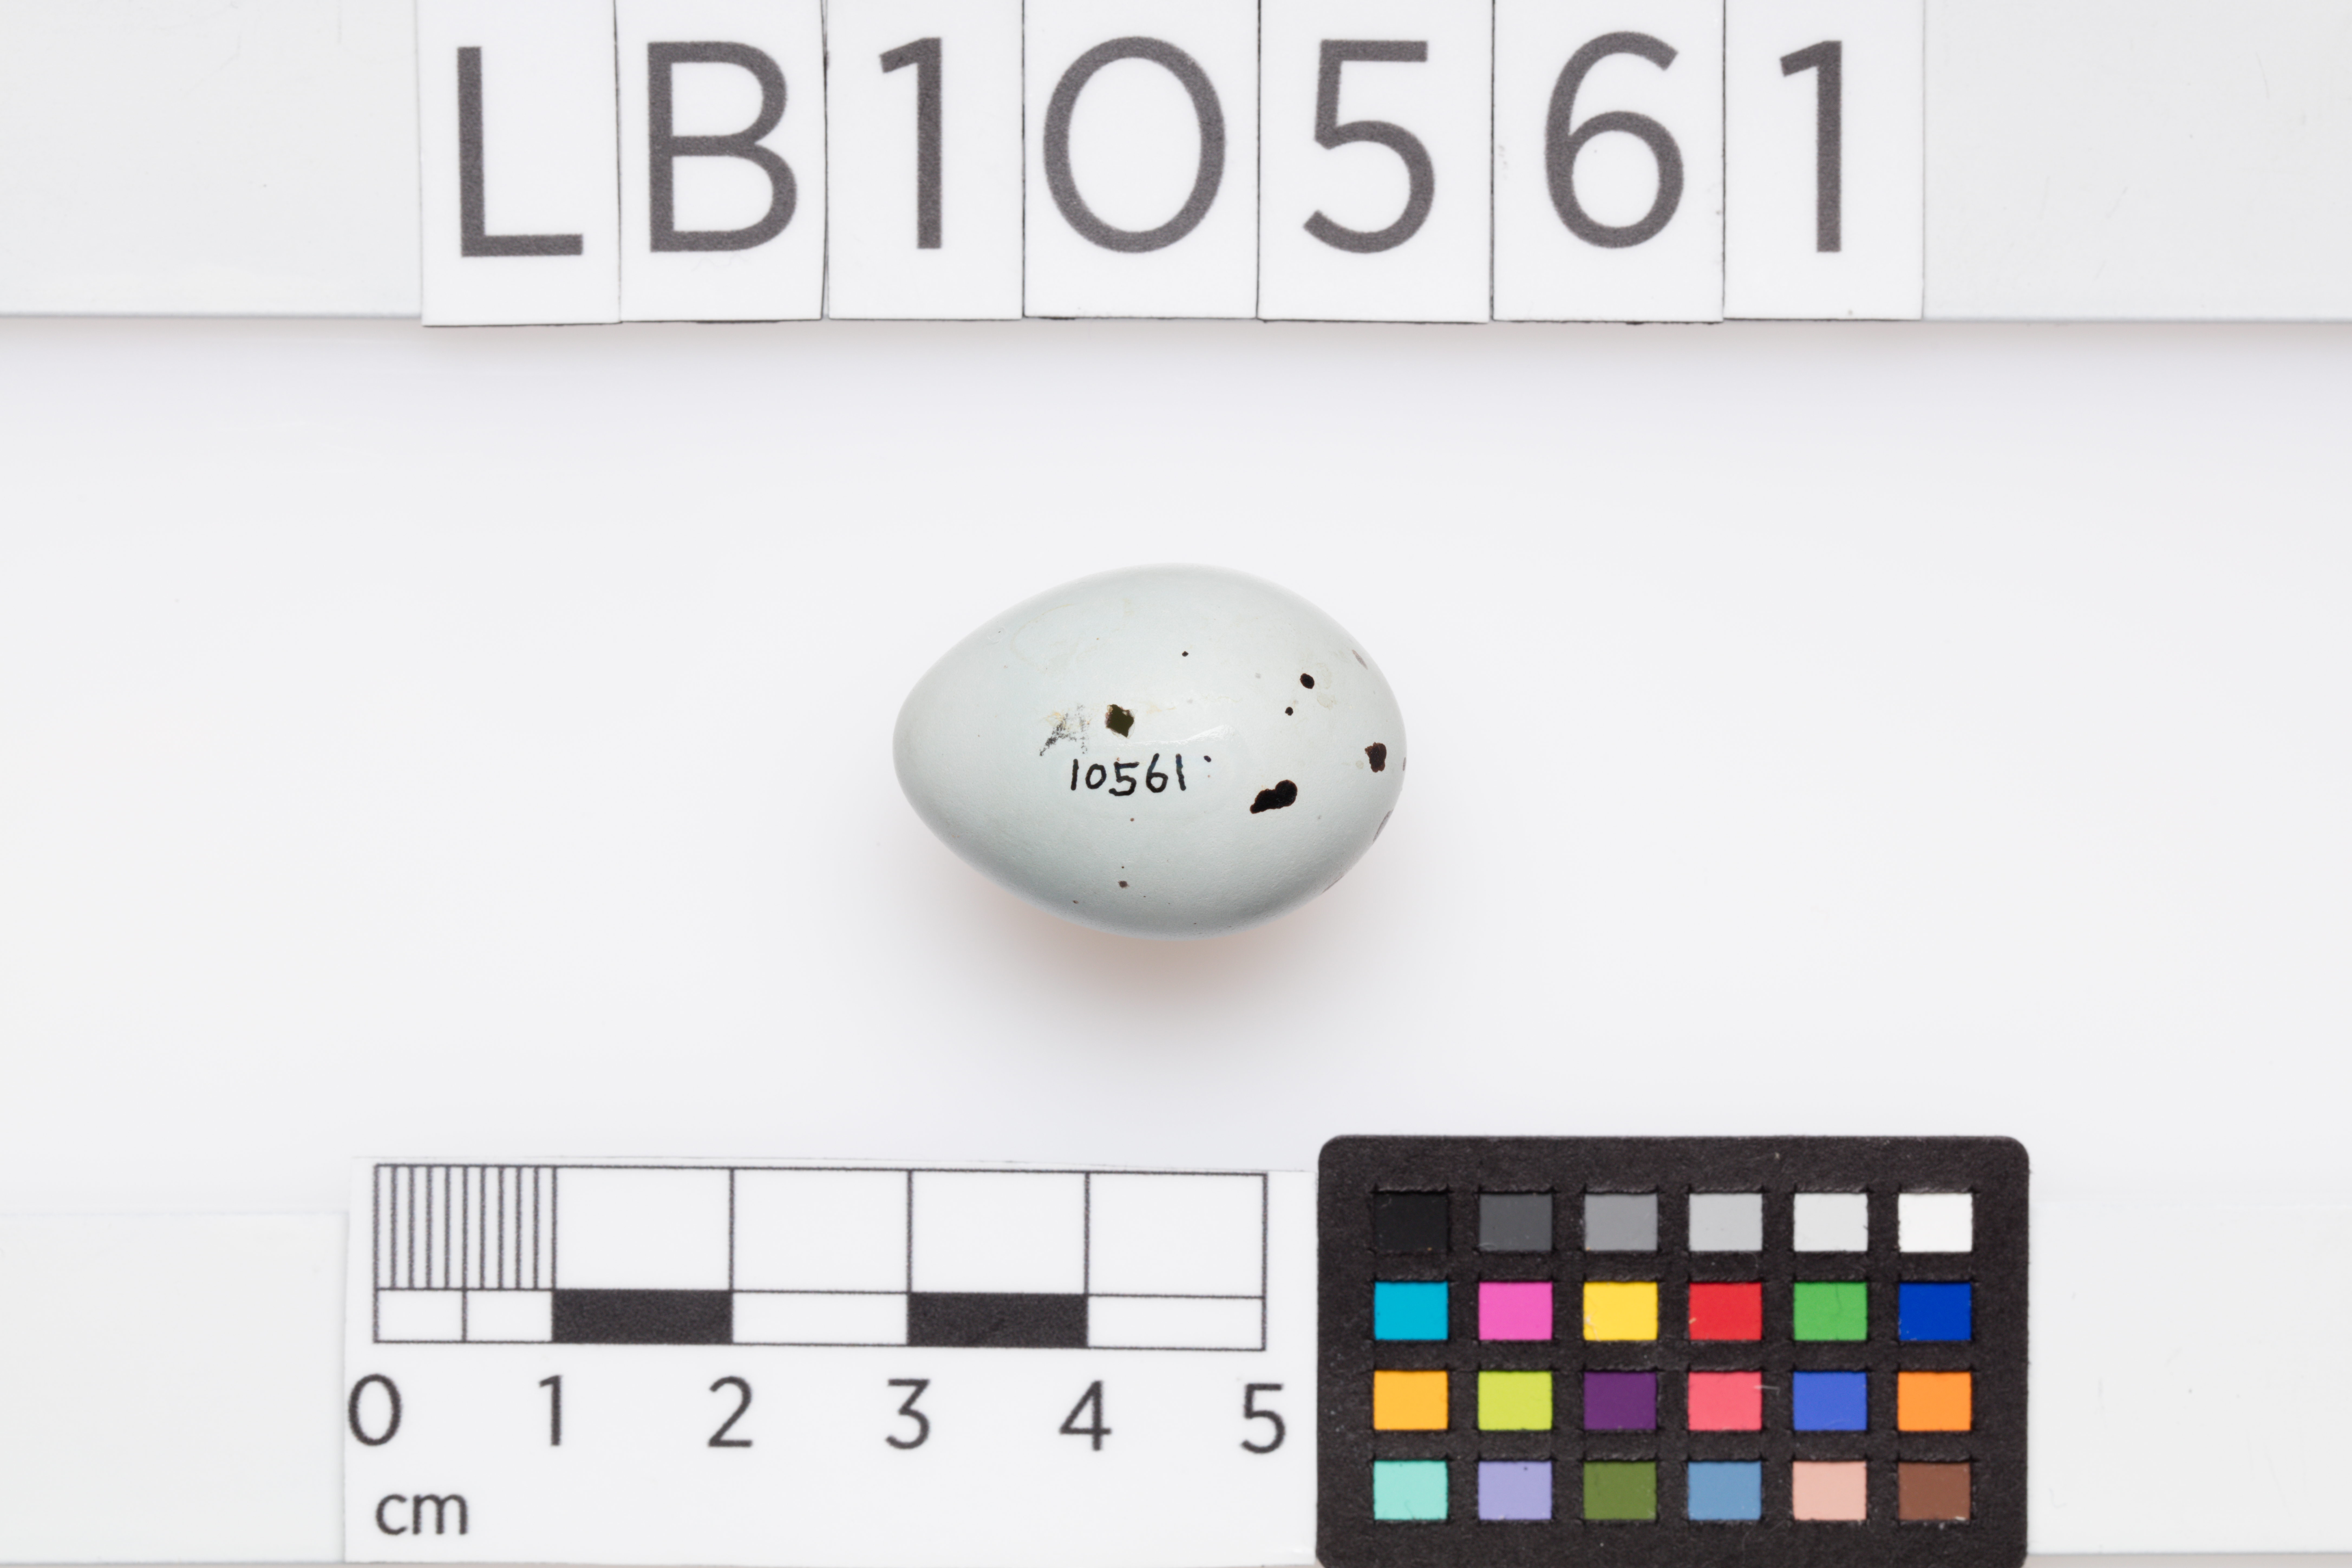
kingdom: Animalia
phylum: Chordata
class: Aves
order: Passeriformes
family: Turdidae
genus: Turdus
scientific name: Turdus philomelos
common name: Song thrush
